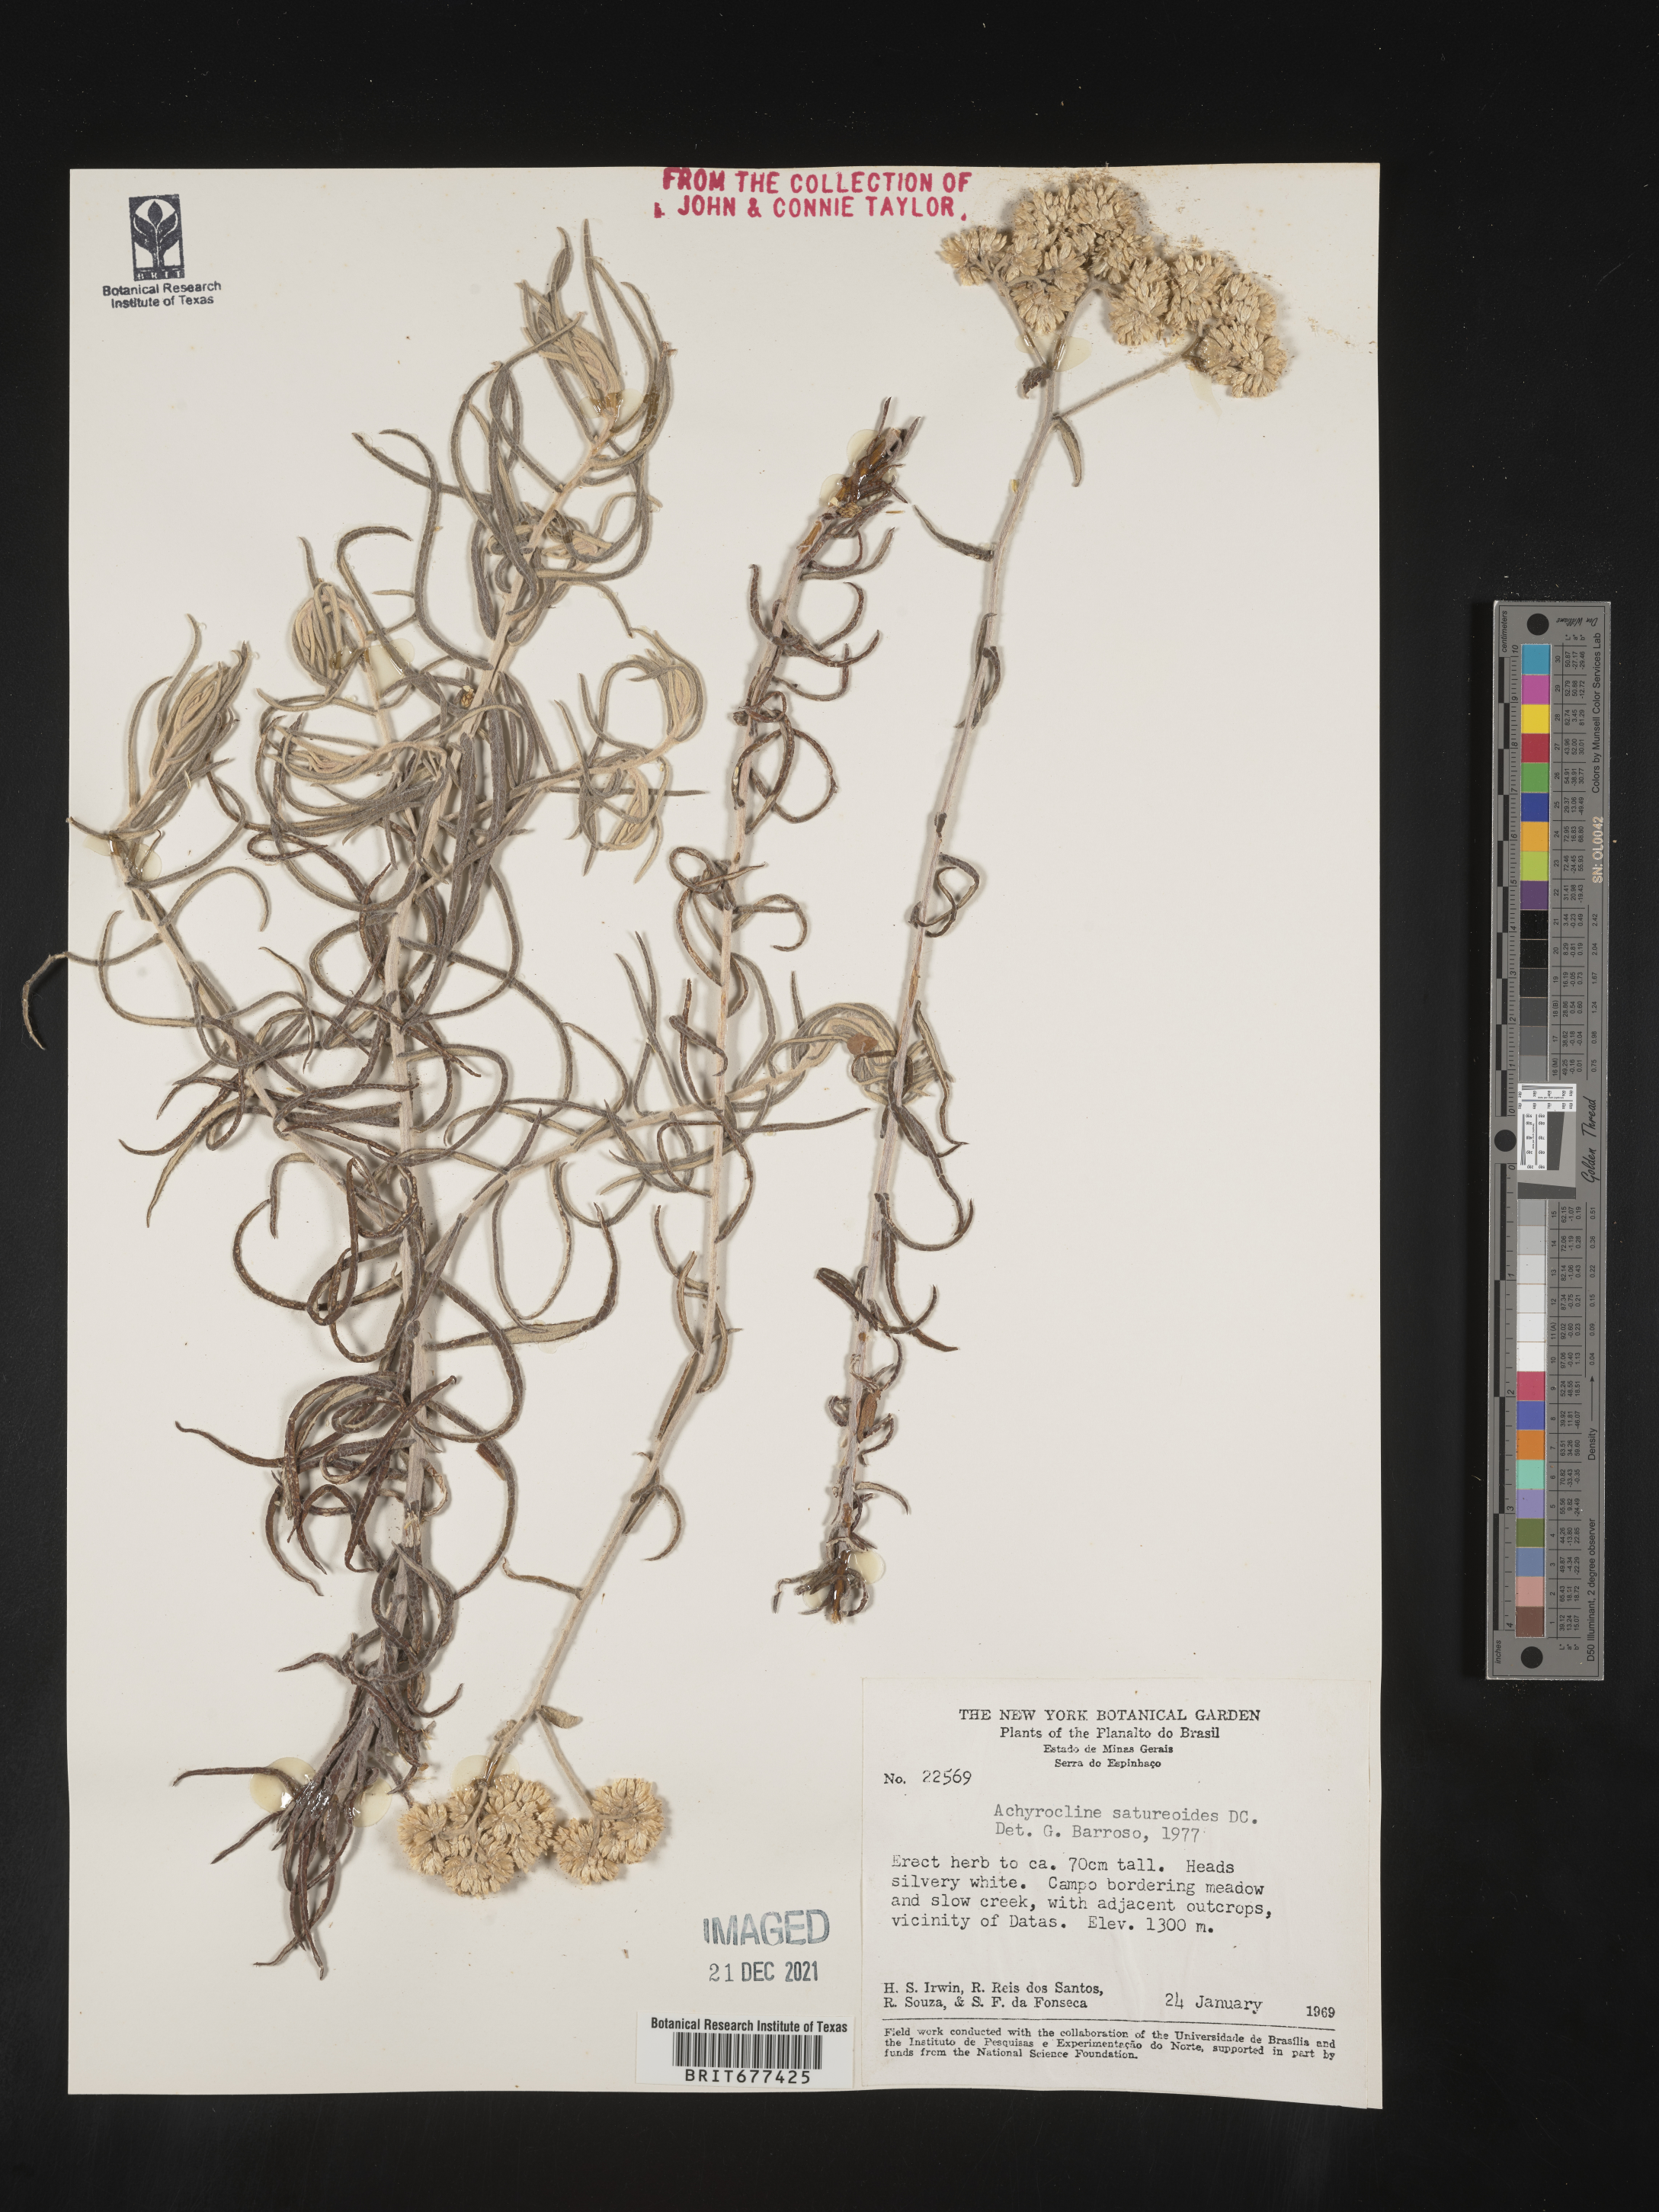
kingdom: Plantae
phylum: Tracheophyta
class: Magnoliopsida
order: Asterales
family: Asteraceae
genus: Achyrocline
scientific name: Achyrocline
